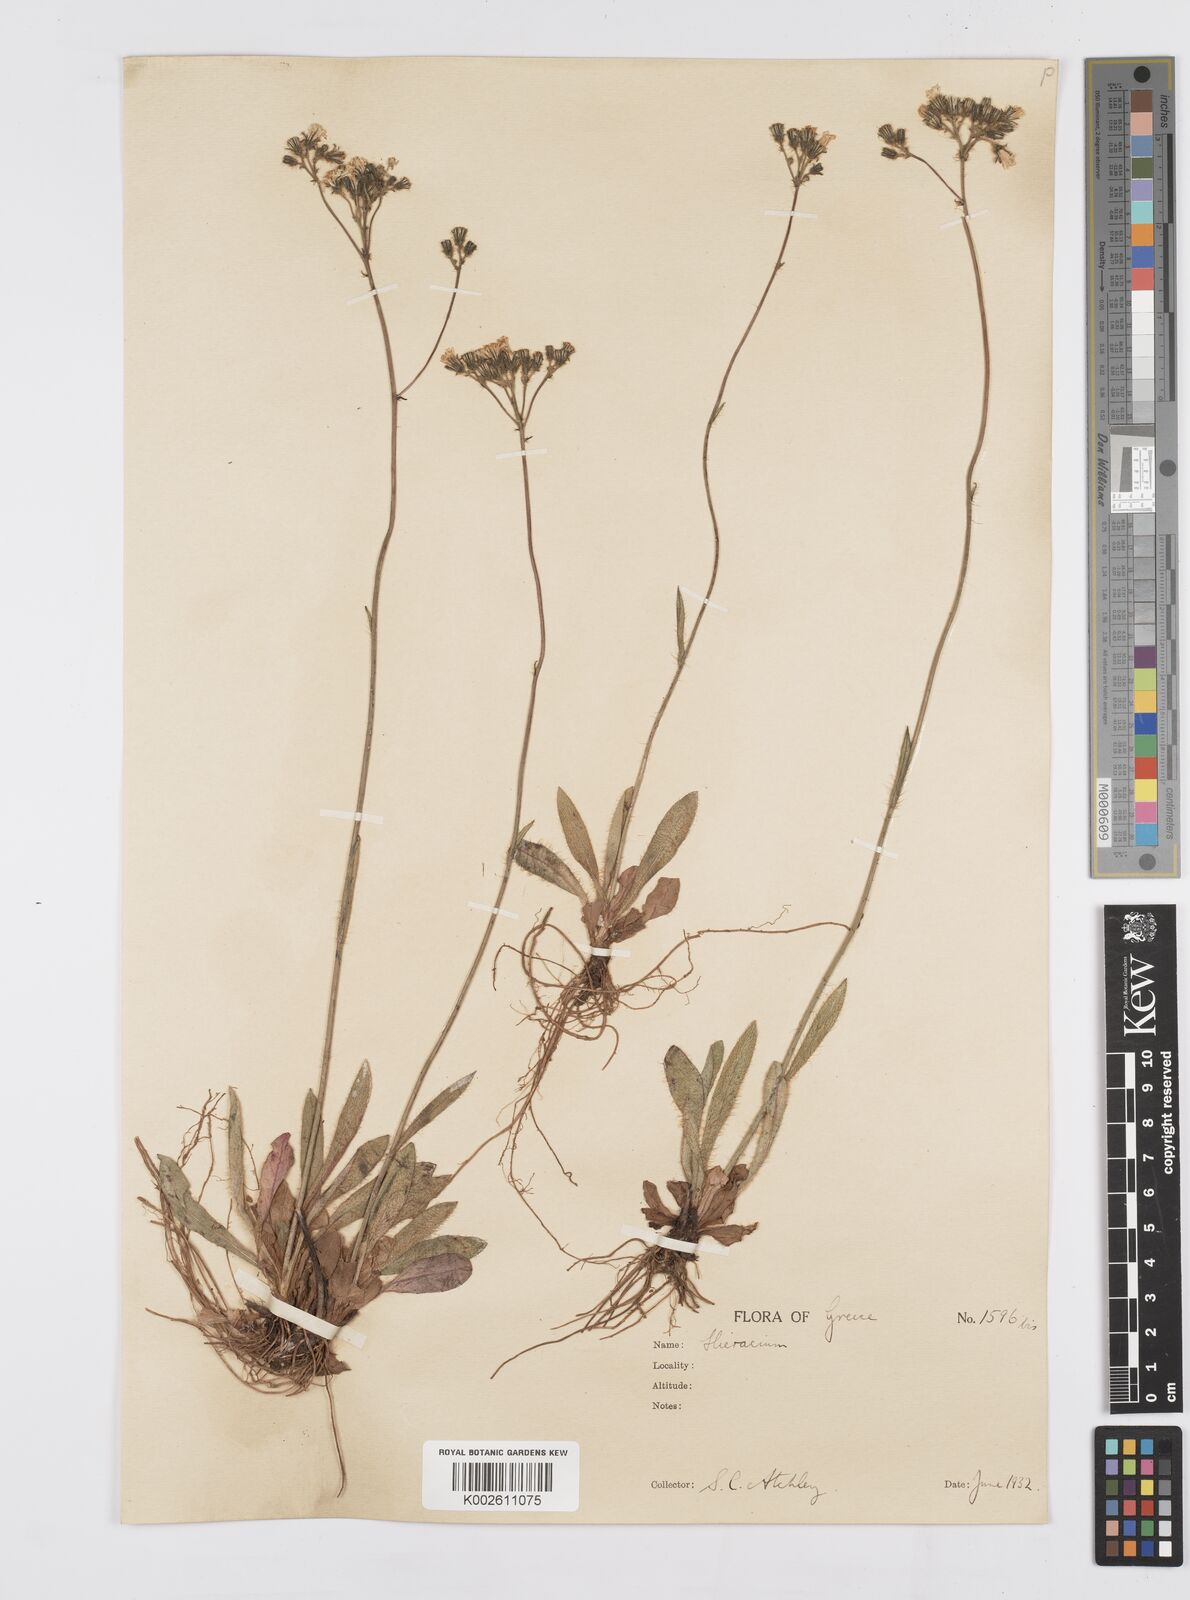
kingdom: Plantae
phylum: Tracheophyta
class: Magnoliopsida
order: Asterales
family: Asteraceae
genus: Pilosella
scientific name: Pilosella piloselloides
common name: Glaucous king-devil
